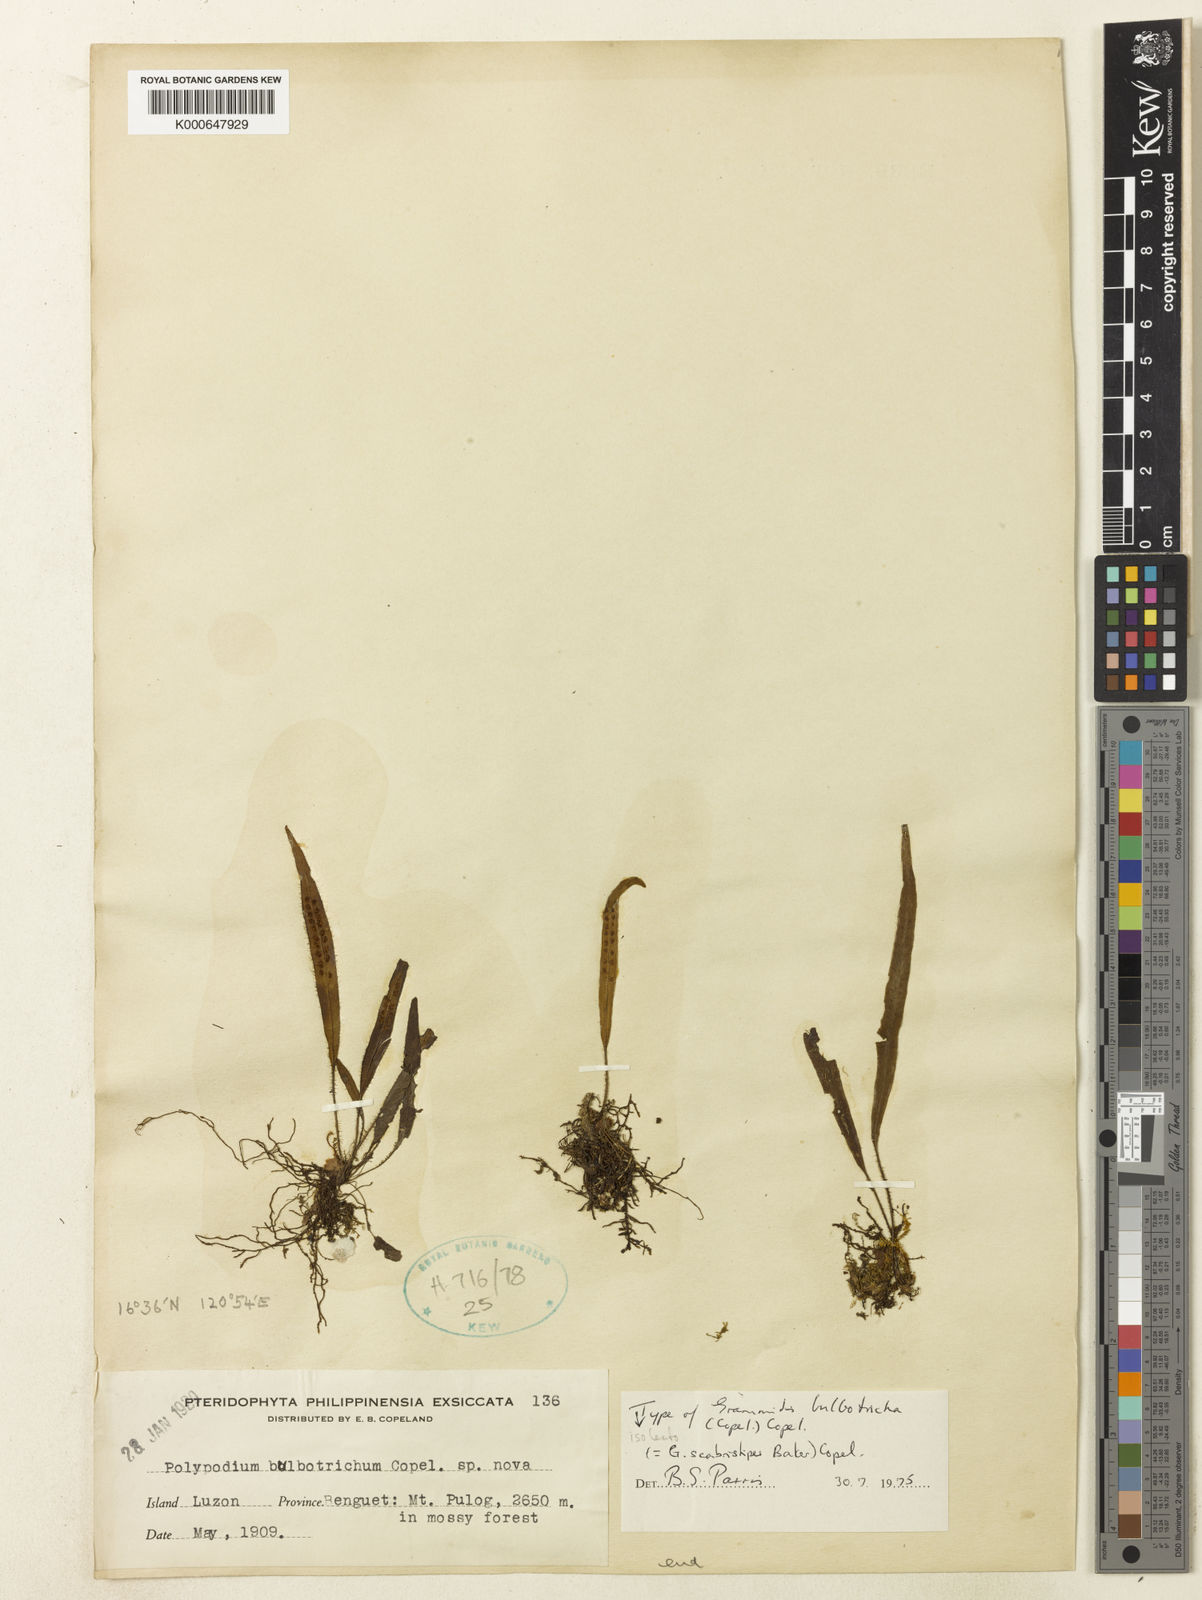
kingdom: Plantae
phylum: Tracheophyta
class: Polypodiopsida
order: Polypodiales
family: Polypodiaceae
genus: Oreogrammitis
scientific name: Oreogrammitis scabristipes
